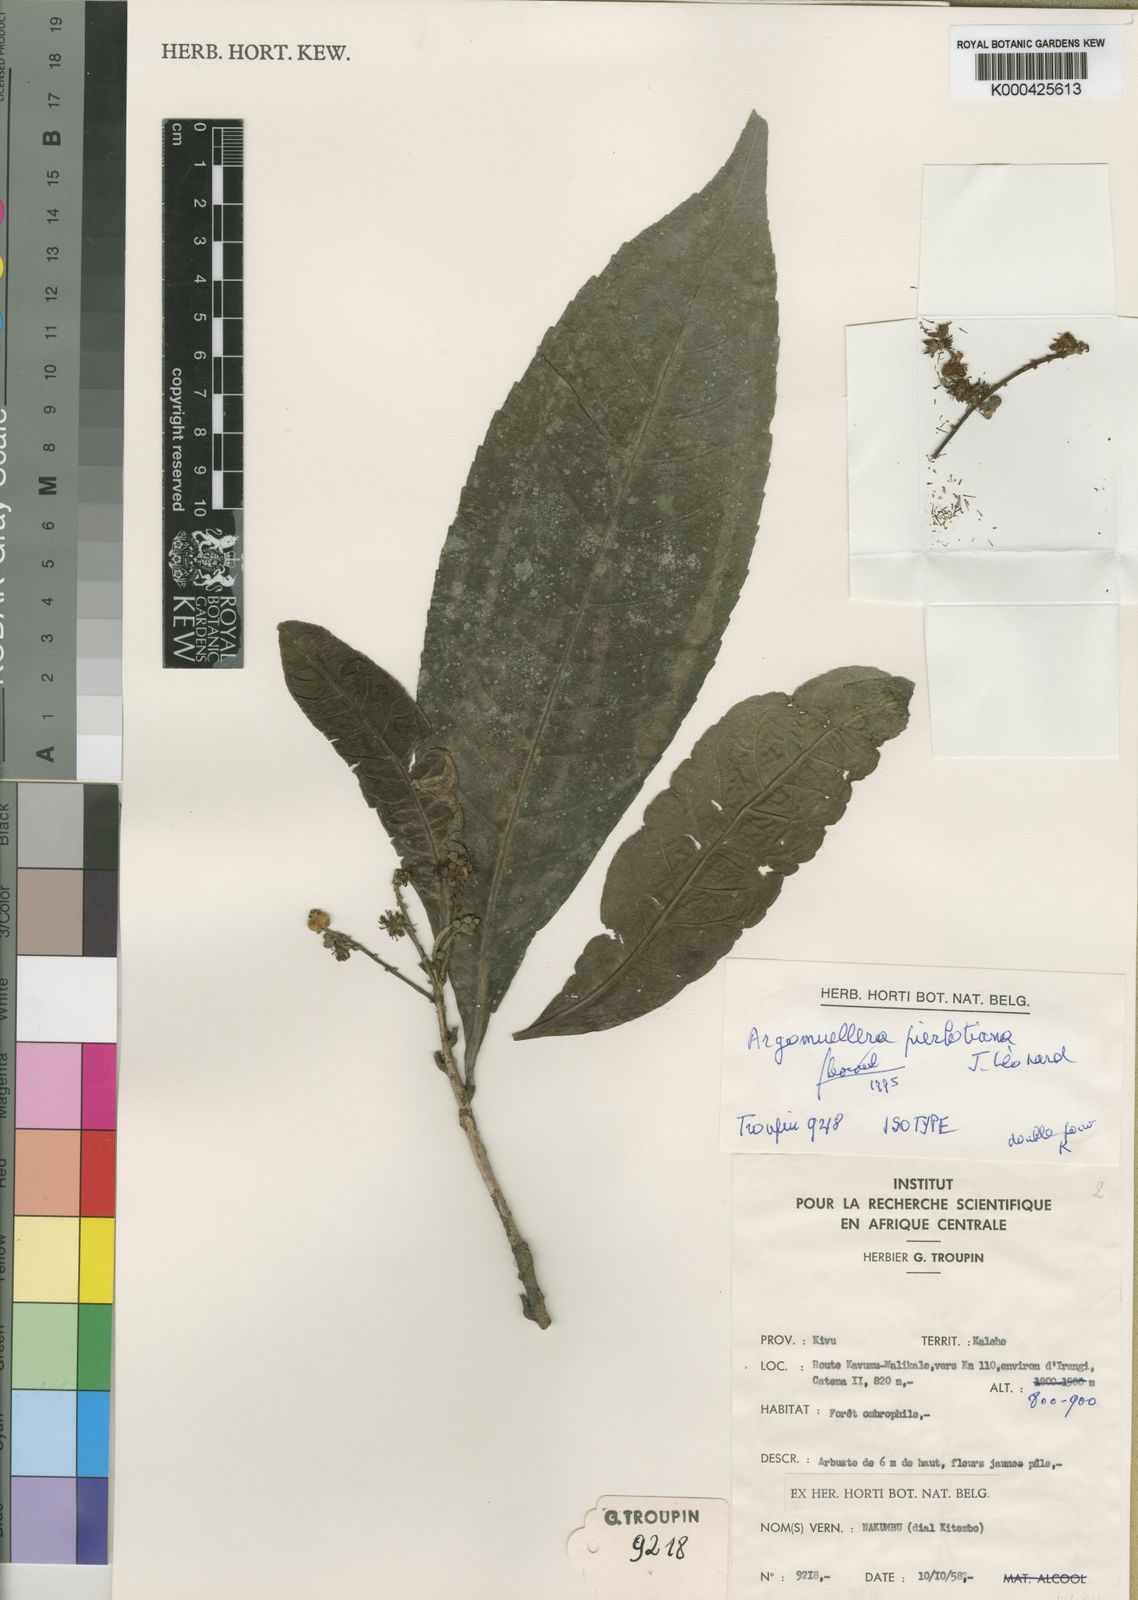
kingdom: Plantae
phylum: Tracheophyta
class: Magnoliopsida
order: Malpighiales
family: Euphorbiaceae
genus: Argomuellera
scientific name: Argomuellera
